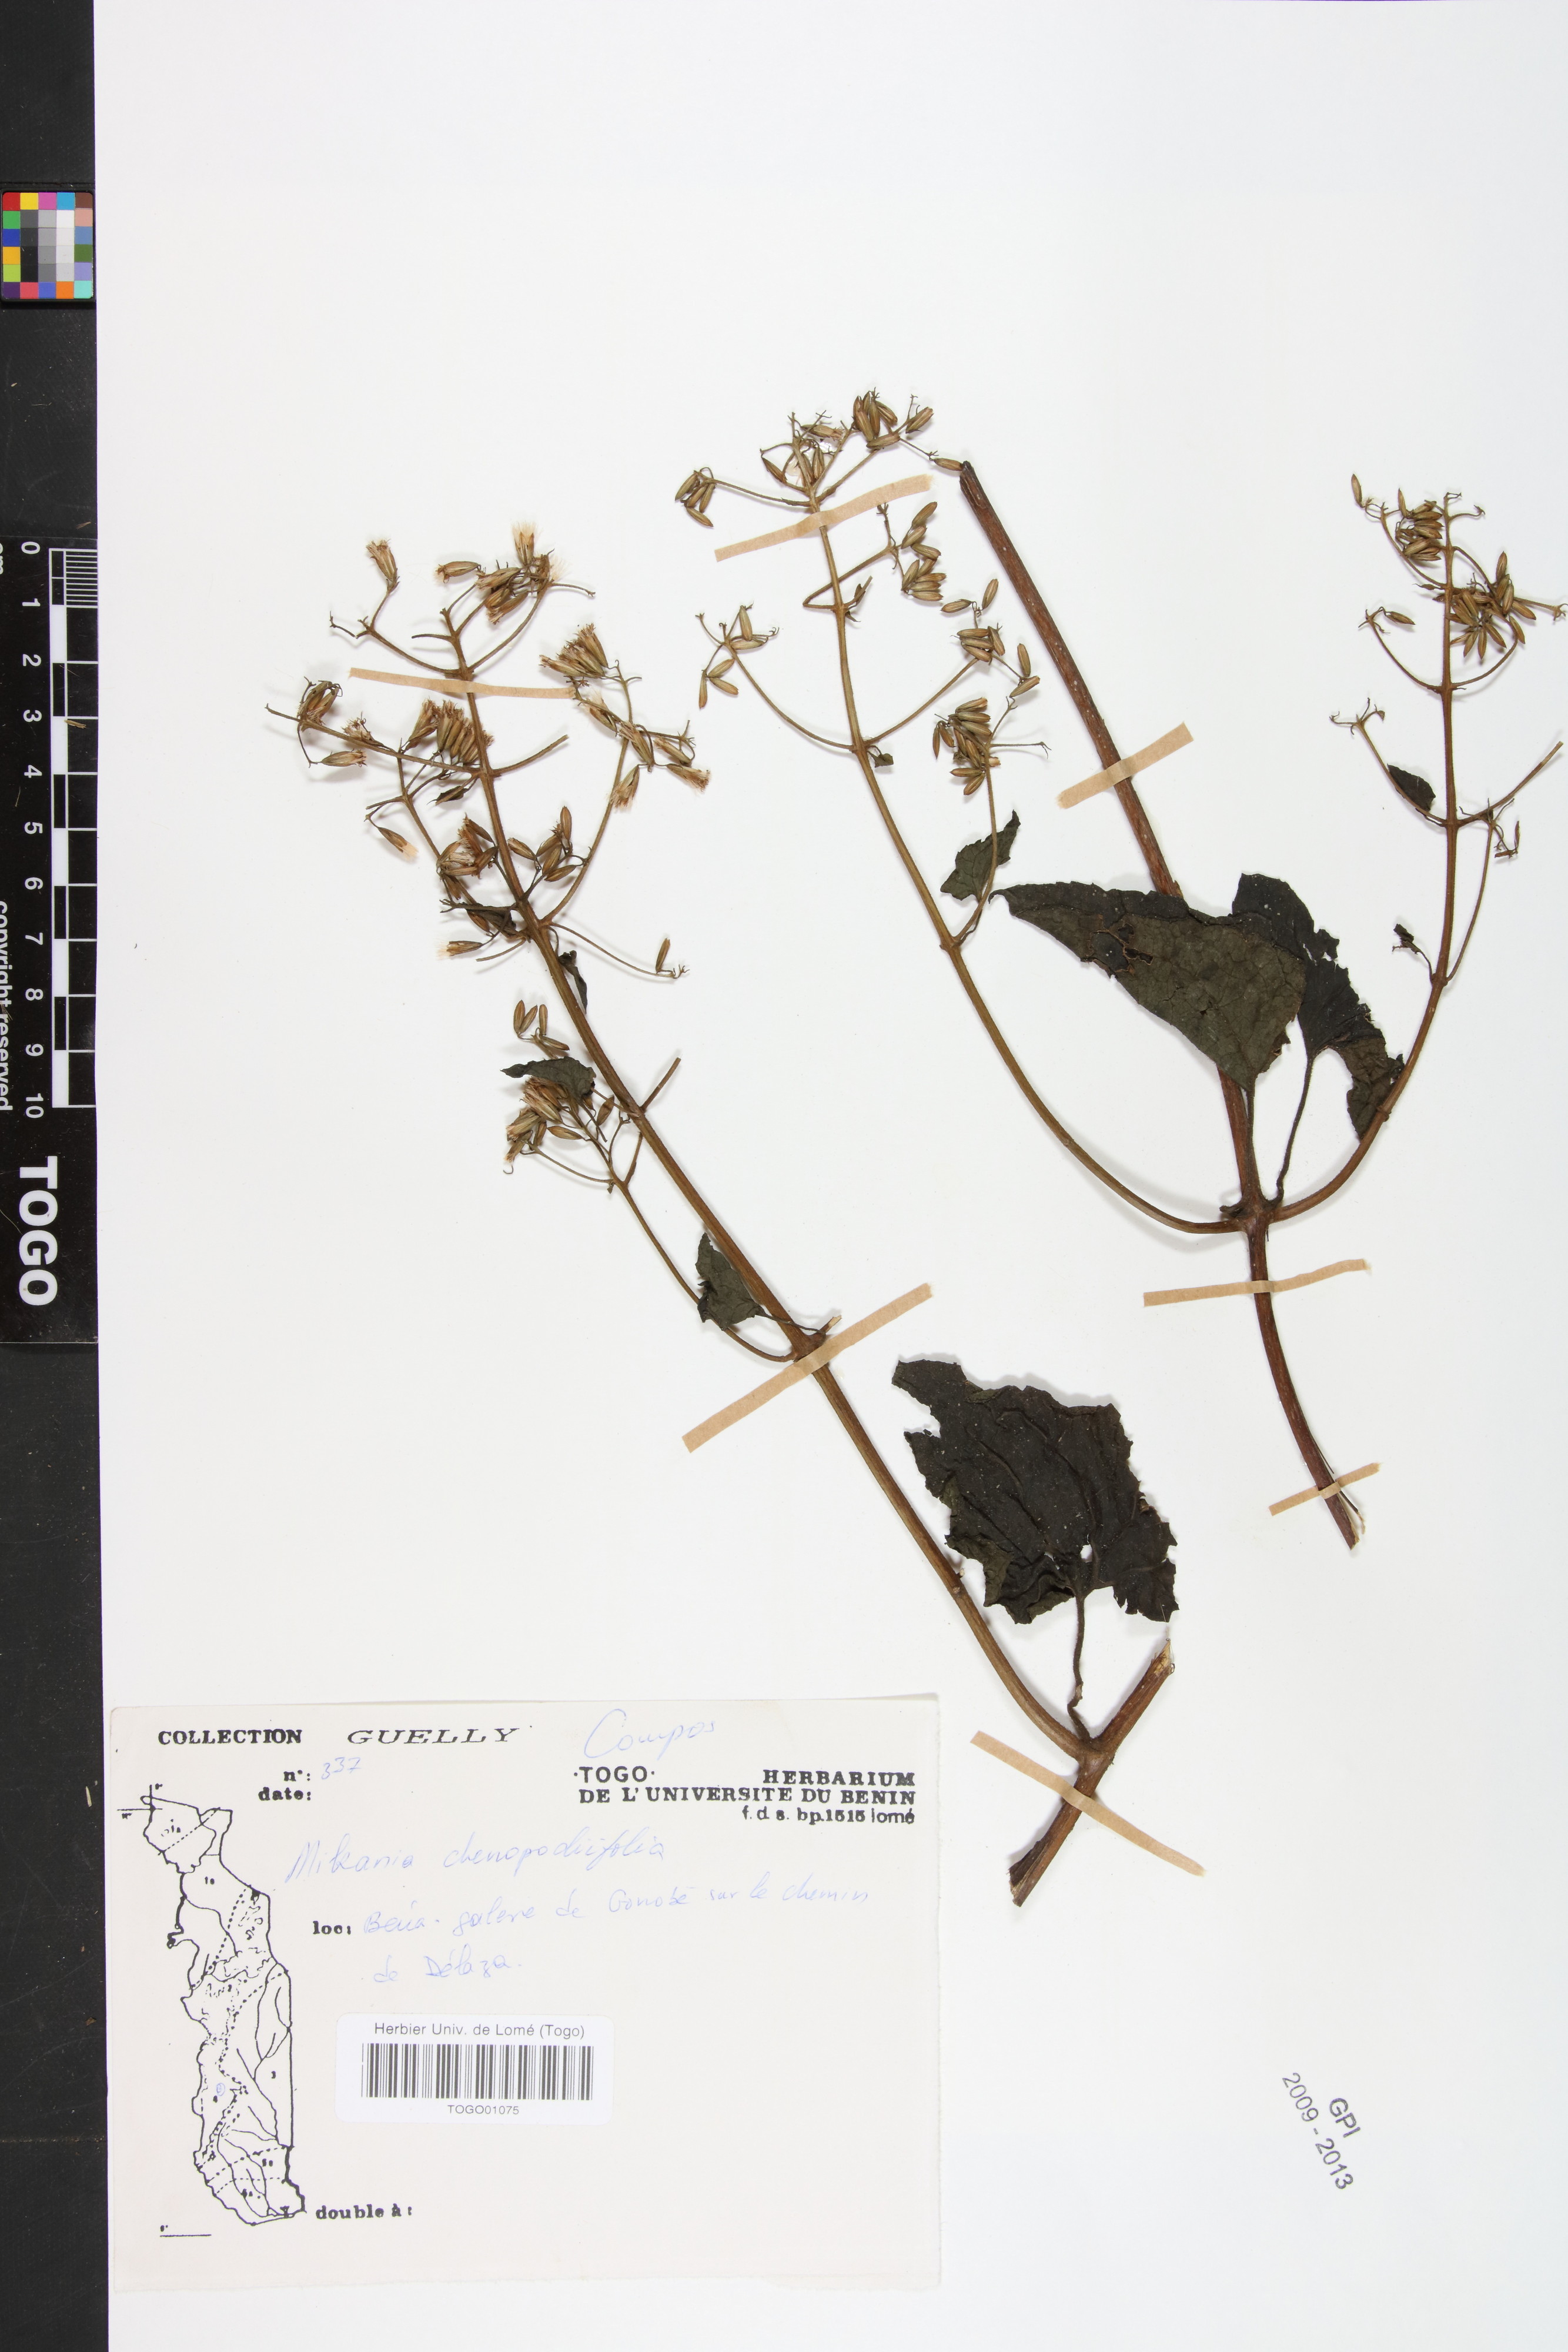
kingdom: Plantae
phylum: Tracheophyta
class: Magnoliopsida
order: Asterales
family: Asteraceae
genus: Mikania
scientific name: Mikania chenopodifolia
